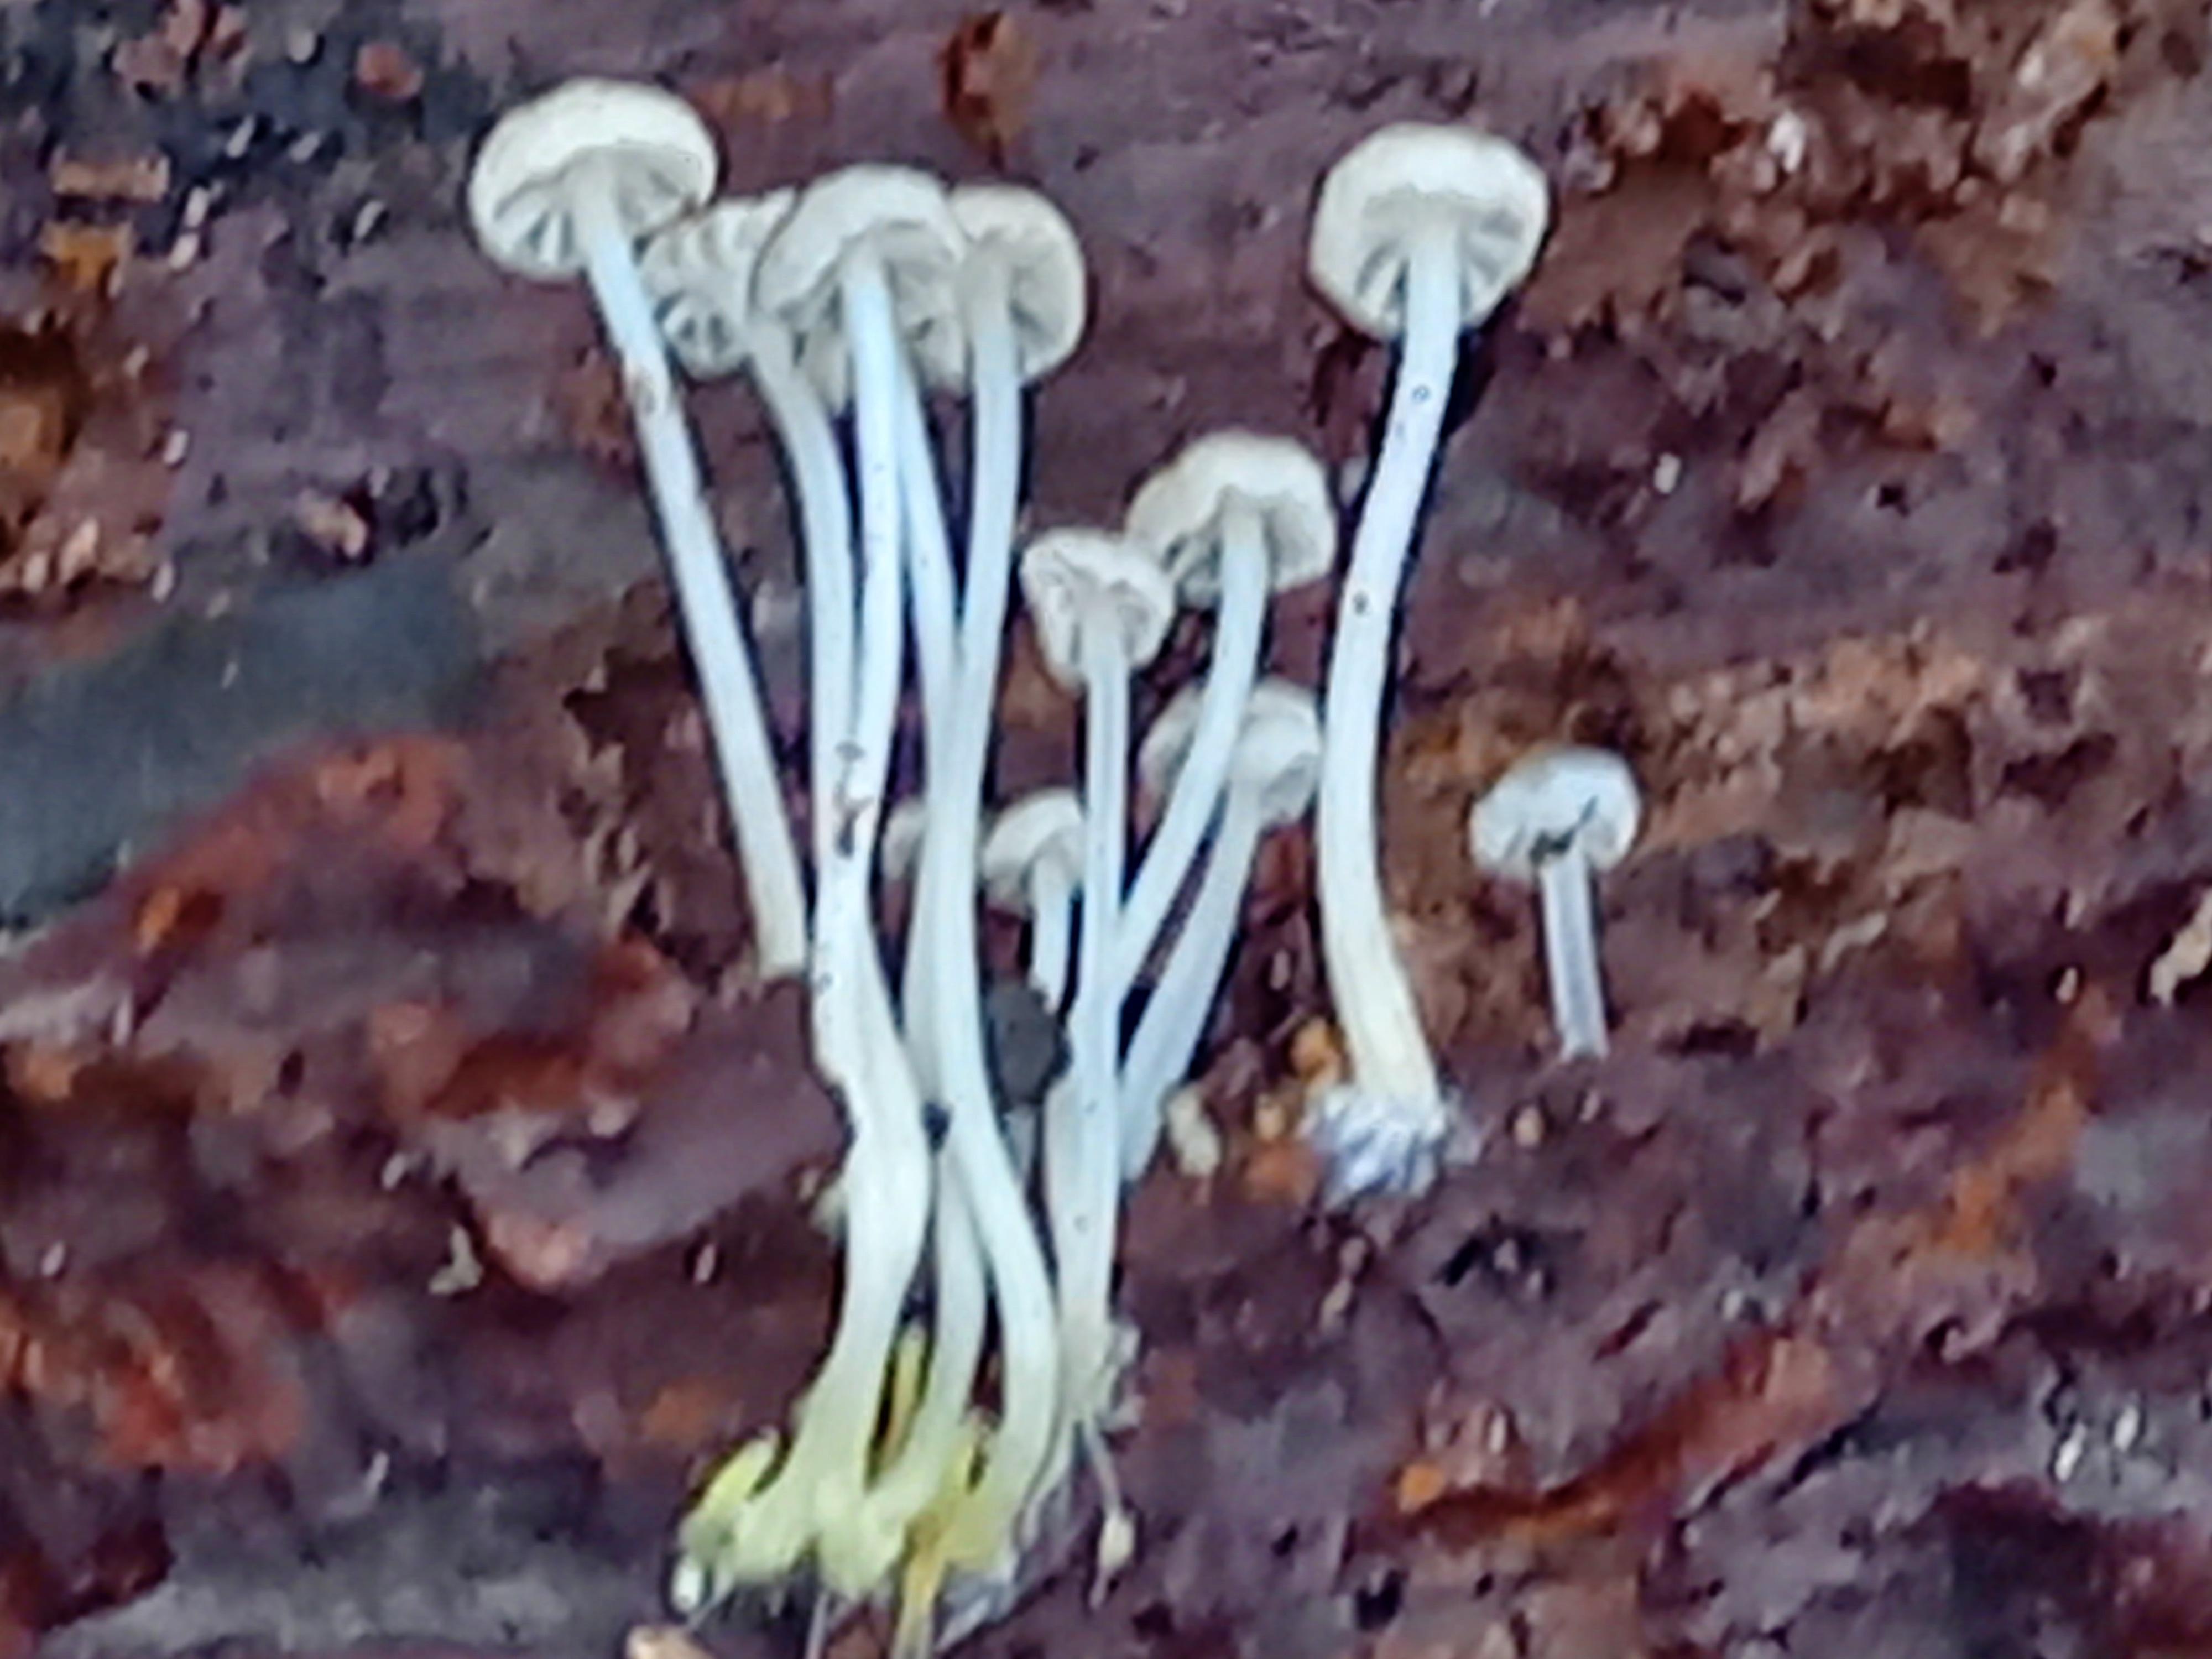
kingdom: Fungi
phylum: Basidiomycota
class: Agaricomycetes
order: Agaricales
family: Porotheleaceae
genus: Phloeomana
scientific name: Phloeomana speirea
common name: kvist-huesvamp
